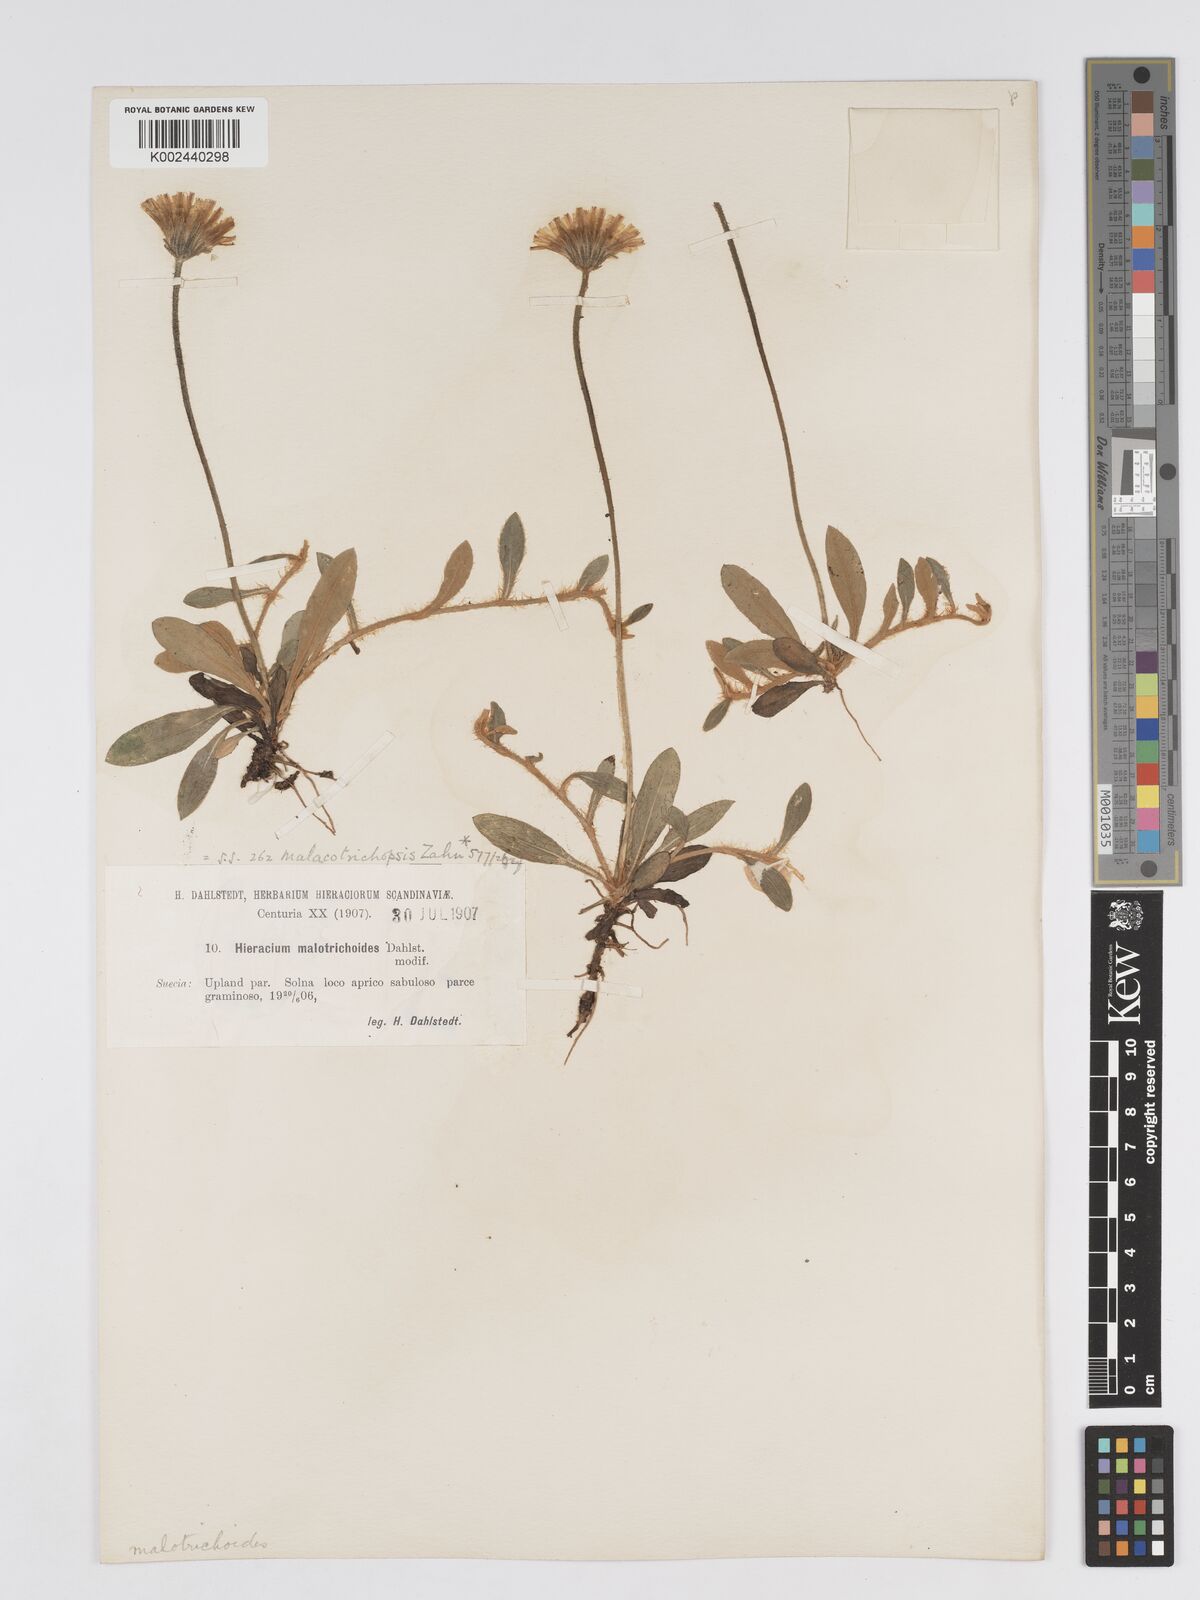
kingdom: Plantae
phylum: Tracheophyta
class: Magnoliopsida
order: Asterales
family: Asteraceae
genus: Pilosella
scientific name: Pilosella officinarum
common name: Mouse-ear hawkweed
